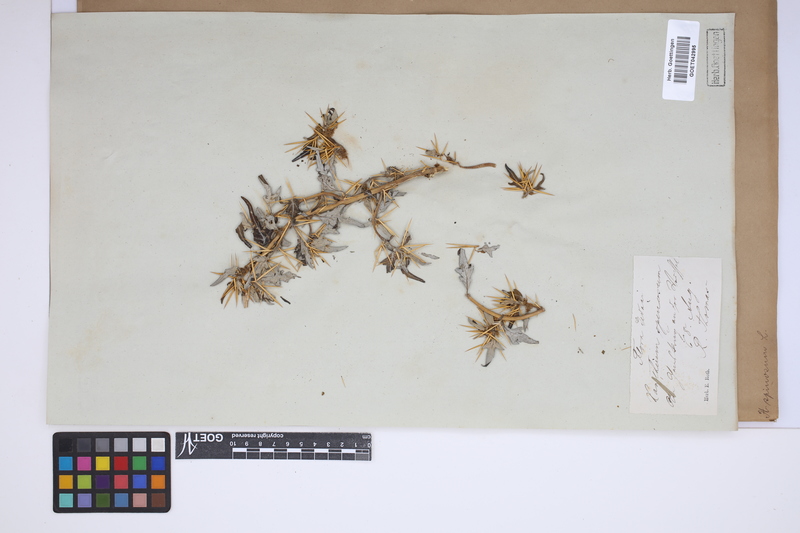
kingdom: Plantae
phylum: Tracheophyta
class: Magnoliopsida
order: Asterales
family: Asteraceae
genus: Xanthium
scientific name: Xanthium spinosum
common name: Spiny cocklebur
